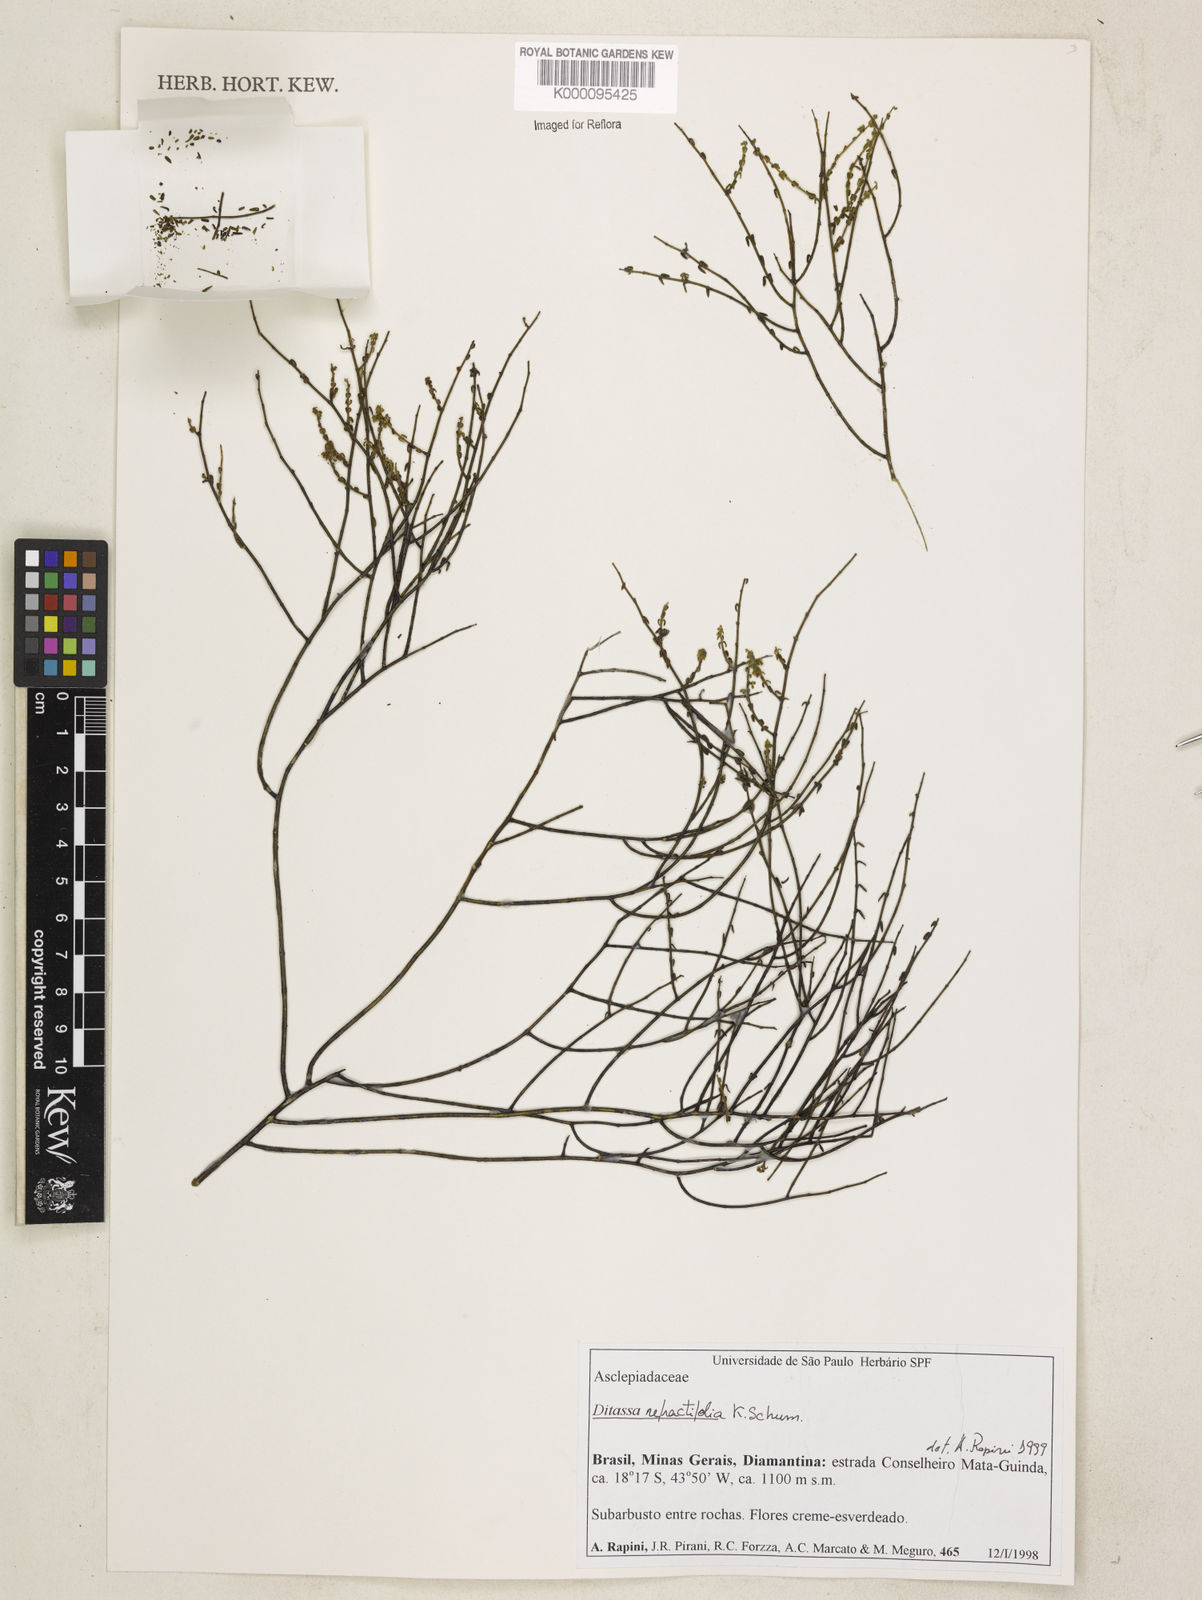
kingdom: Plantae
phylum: Tracheophyta
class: Magnoliopsida
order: Gentianales
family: Apocynaceae
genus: Minaria
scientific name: Minaria refractifolia
